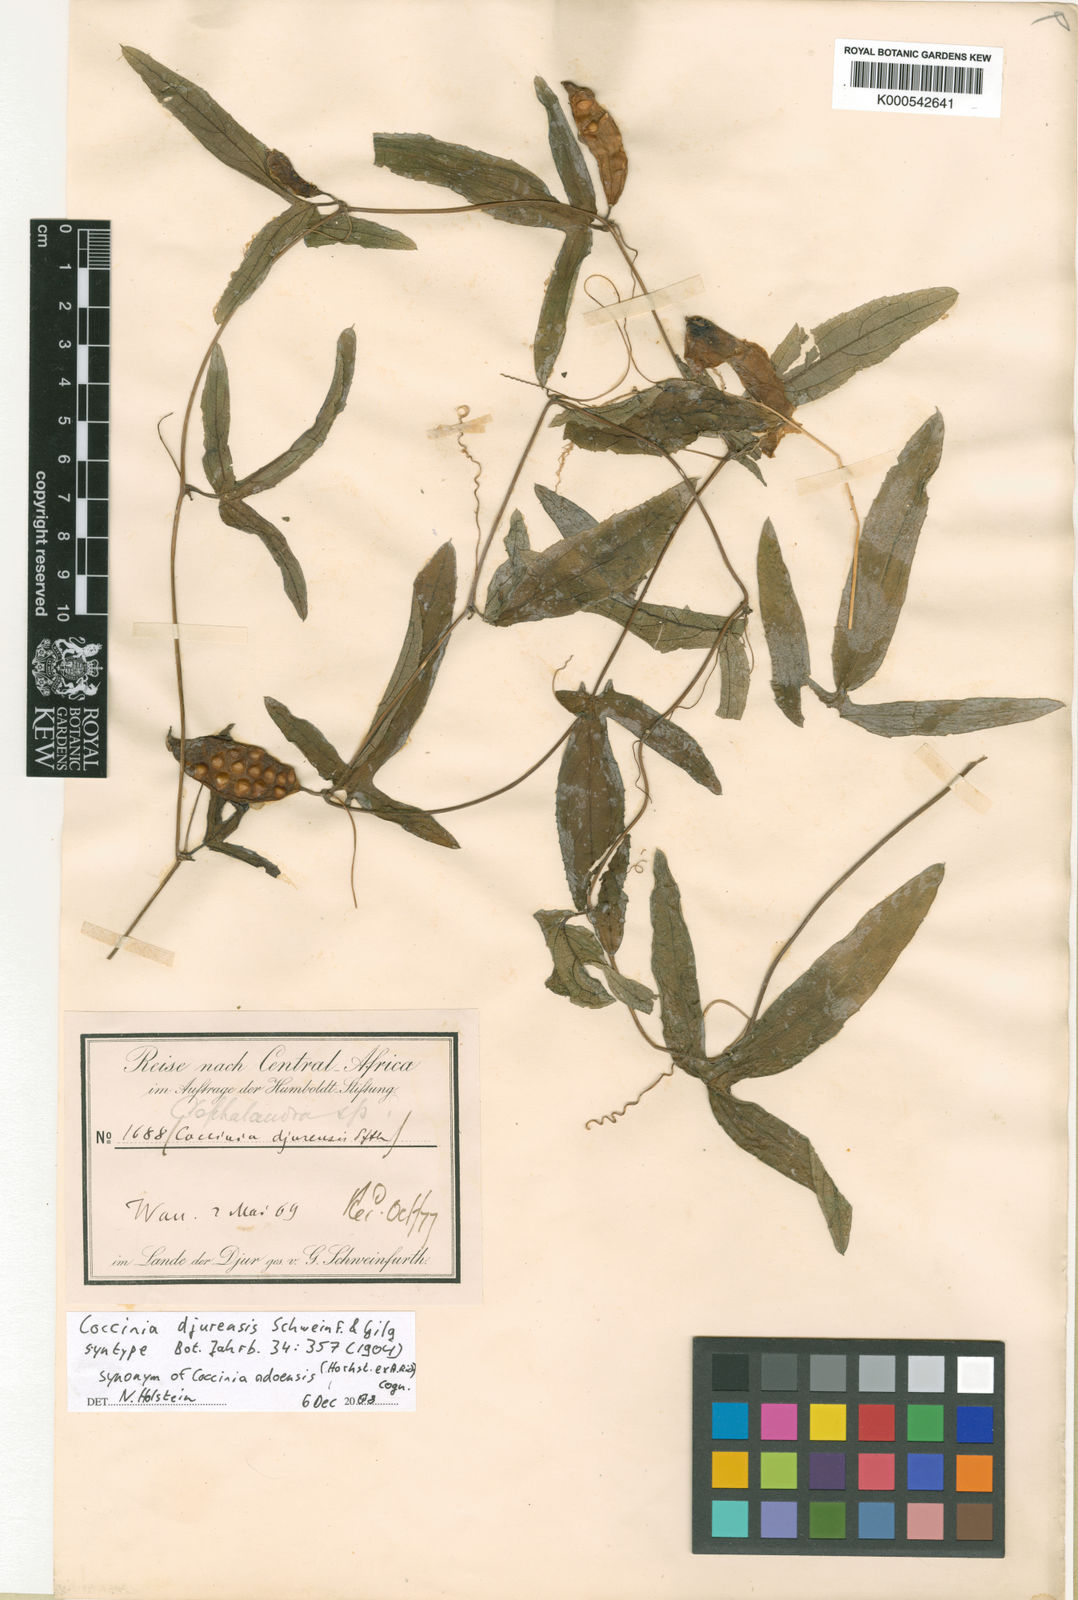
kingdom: Plantae
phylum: Tracheophyta
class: Magnoliopsida
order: Cucurbitales
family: Cucurbitaceae
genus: Coccinia
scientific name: Coccinia adoensis
